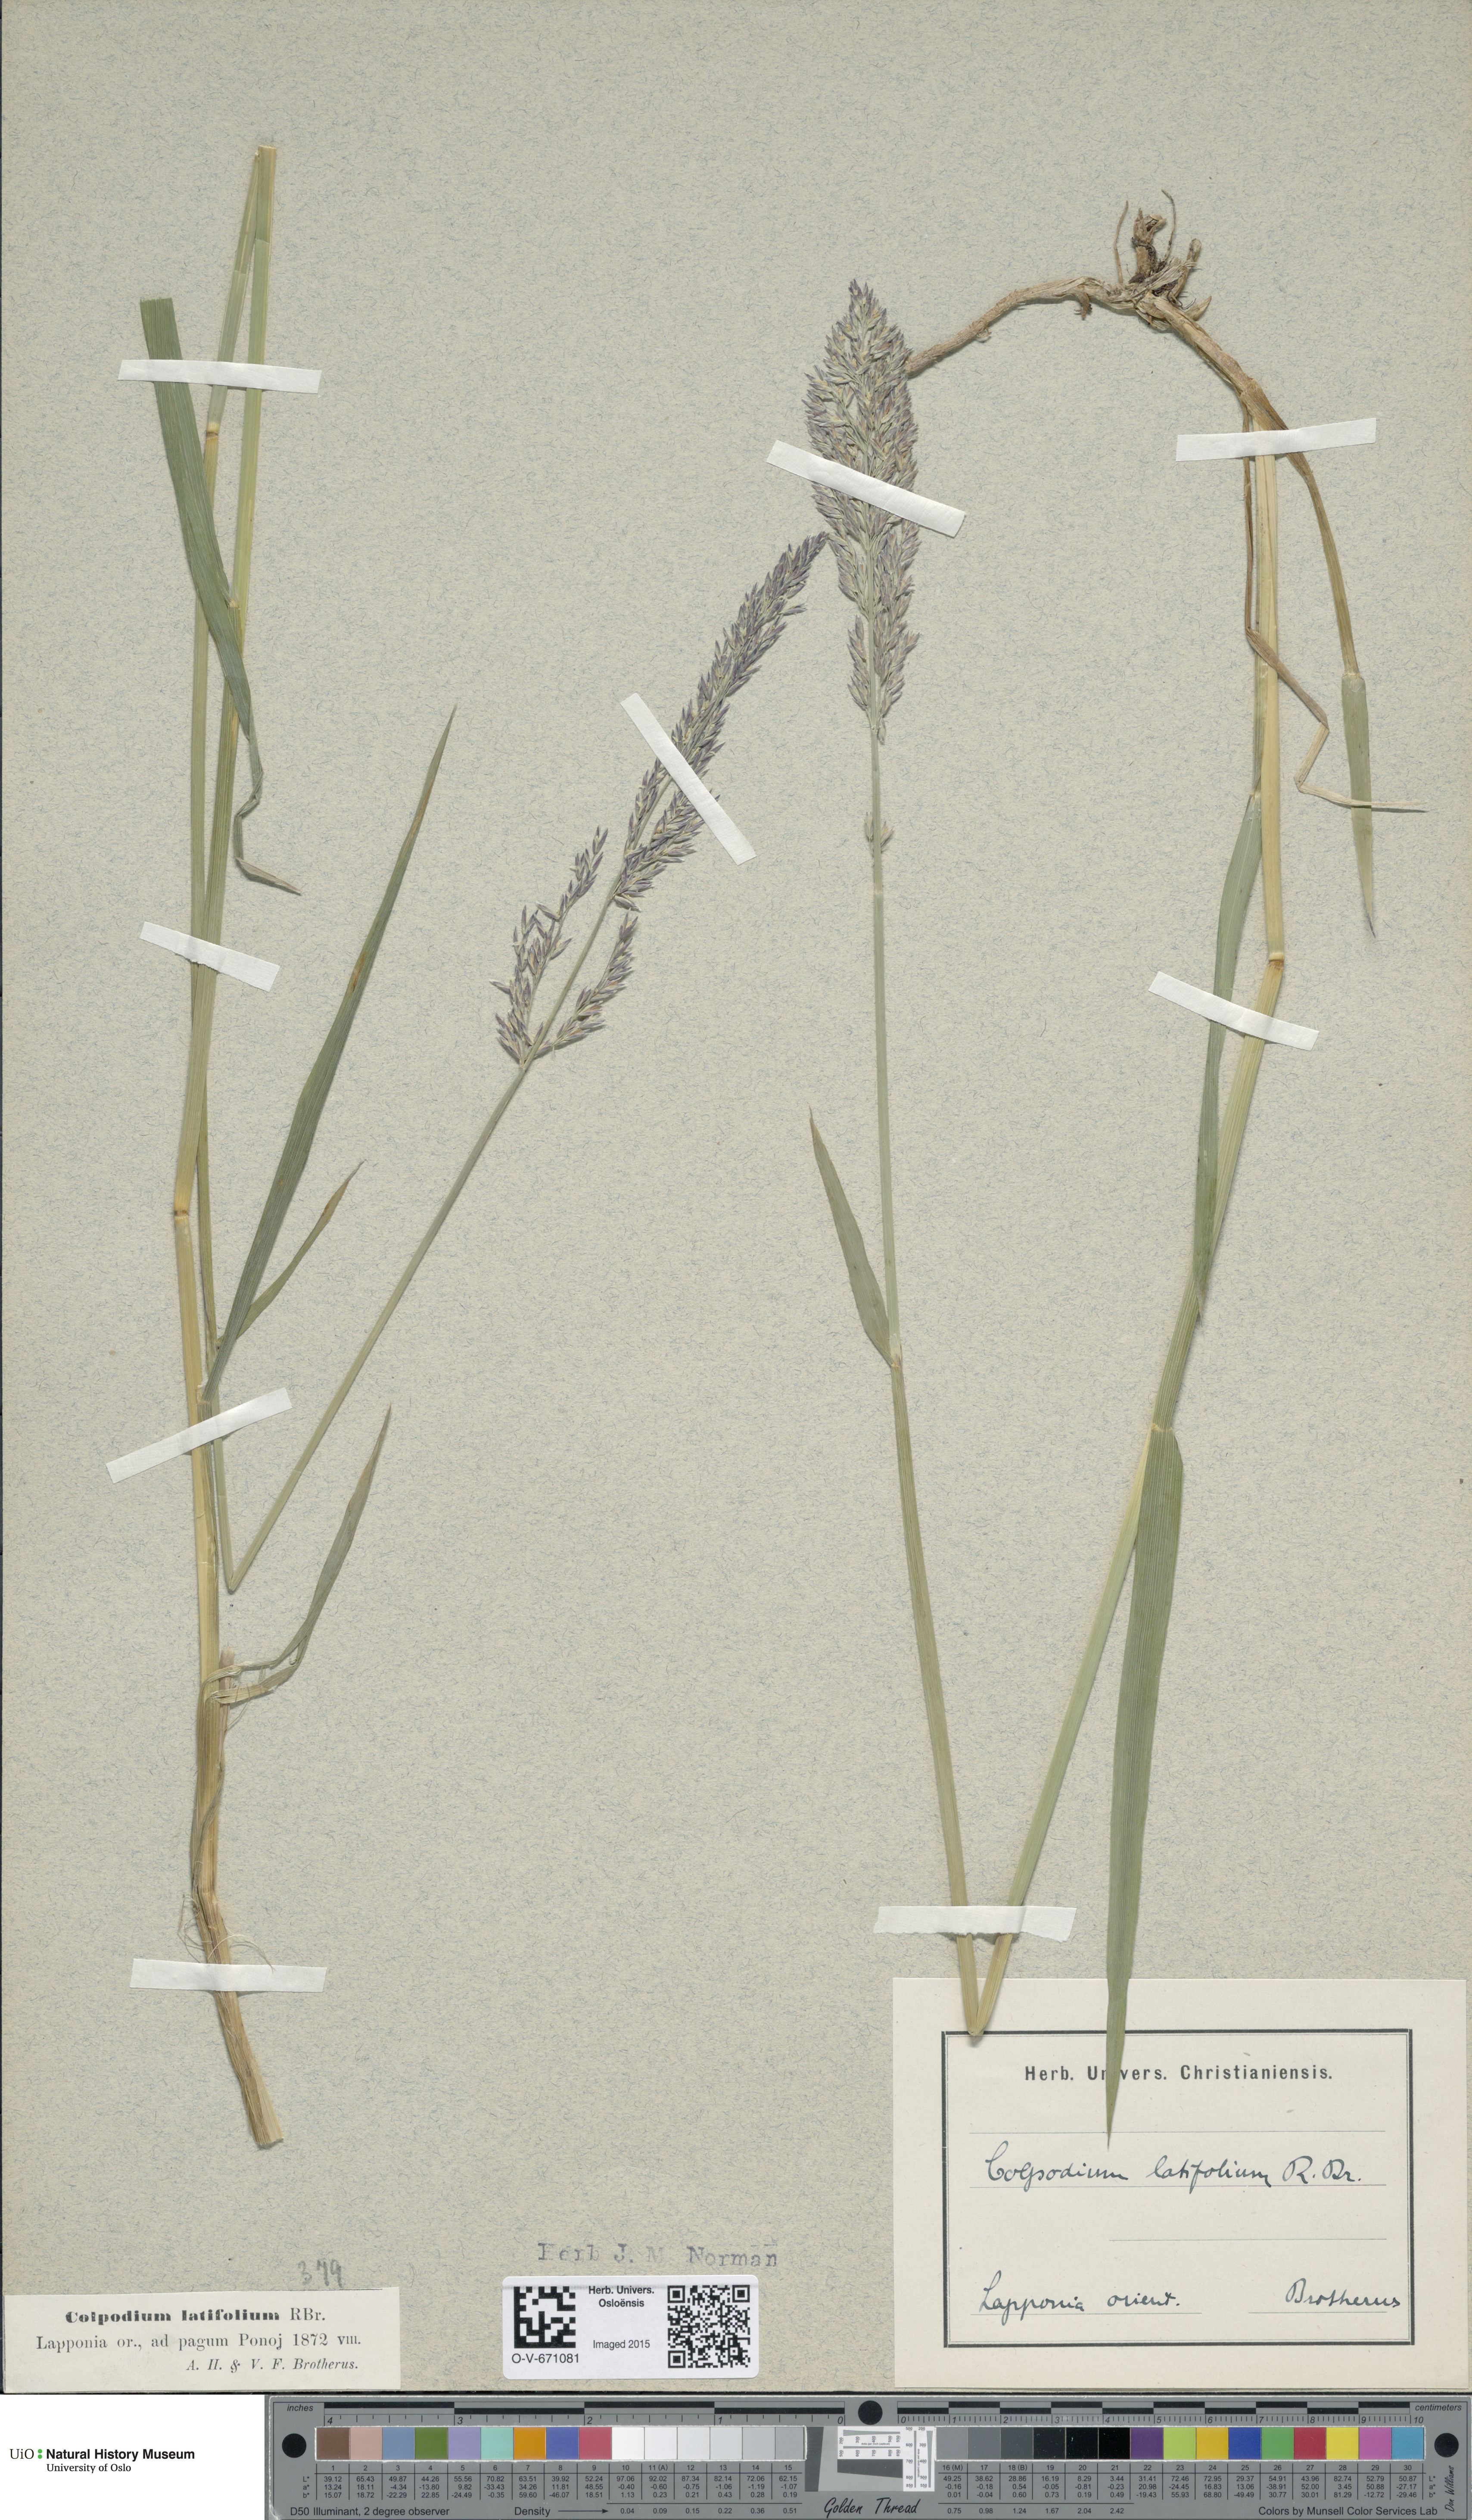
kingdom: Plantae
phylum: Tracheophyta
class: Liliopsida
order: Poales
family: Poaceae
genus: Arctagrostis
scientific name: Arctagrostis latifolia
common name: Arctic grass
